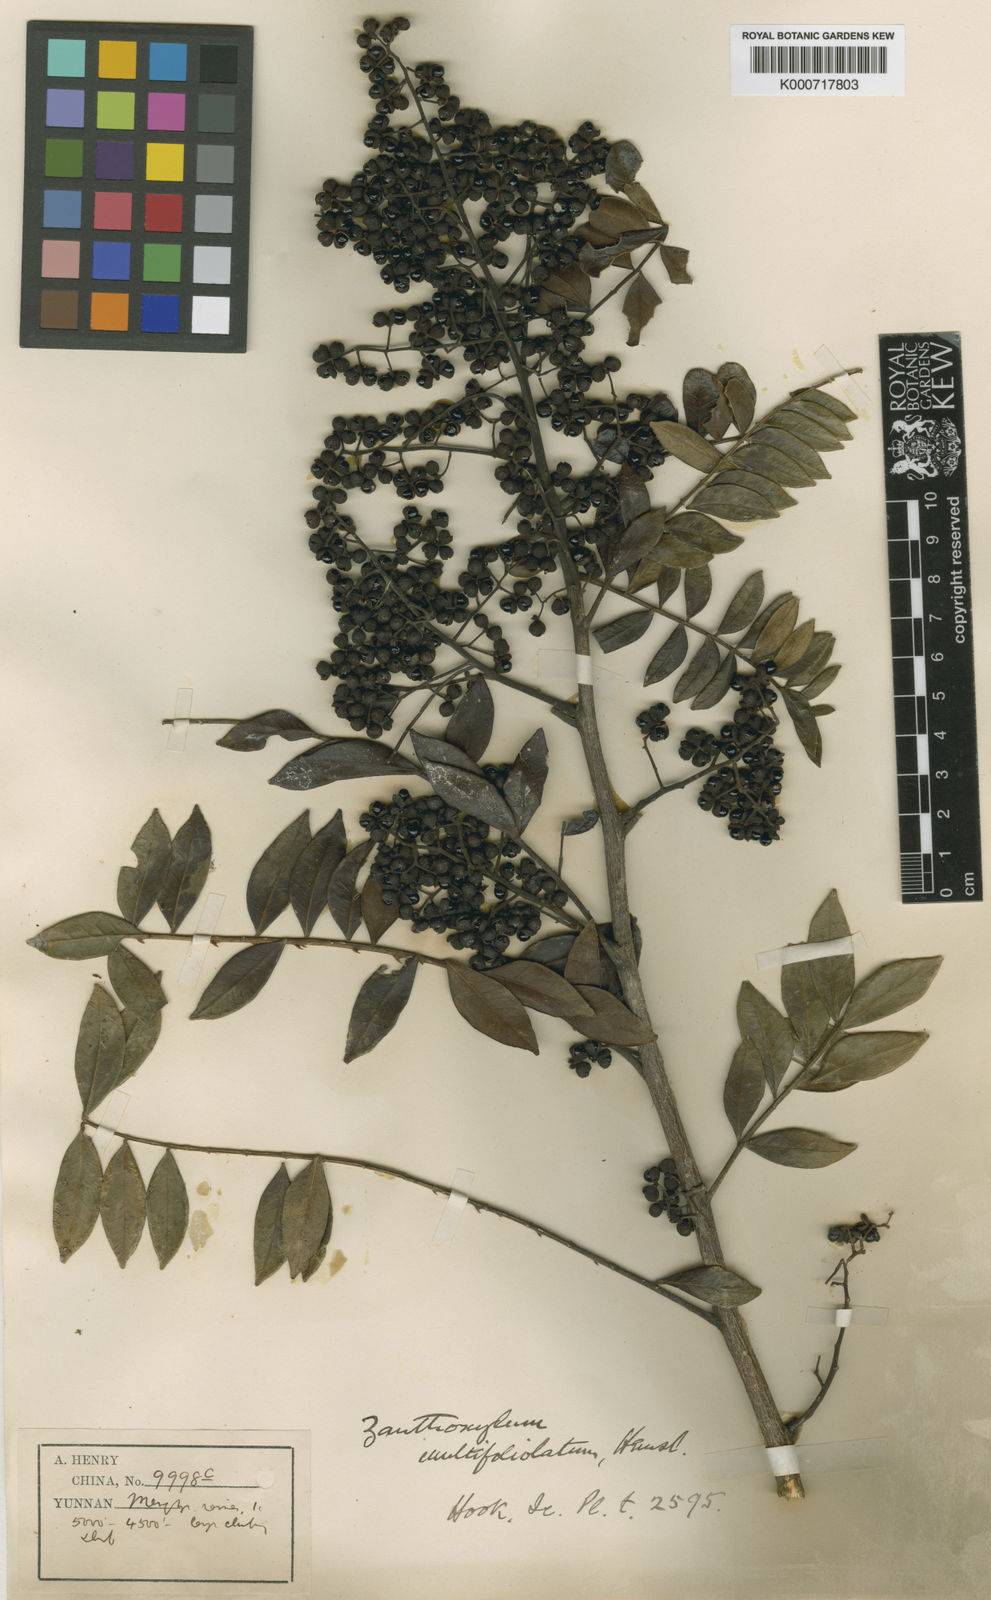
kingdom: Plantae
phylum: Tracheophyta
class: Magnoliopsida
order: Sapindales
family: Rutaceae
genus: Zanthoxylum
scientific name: Zanthoxylum multijugum
